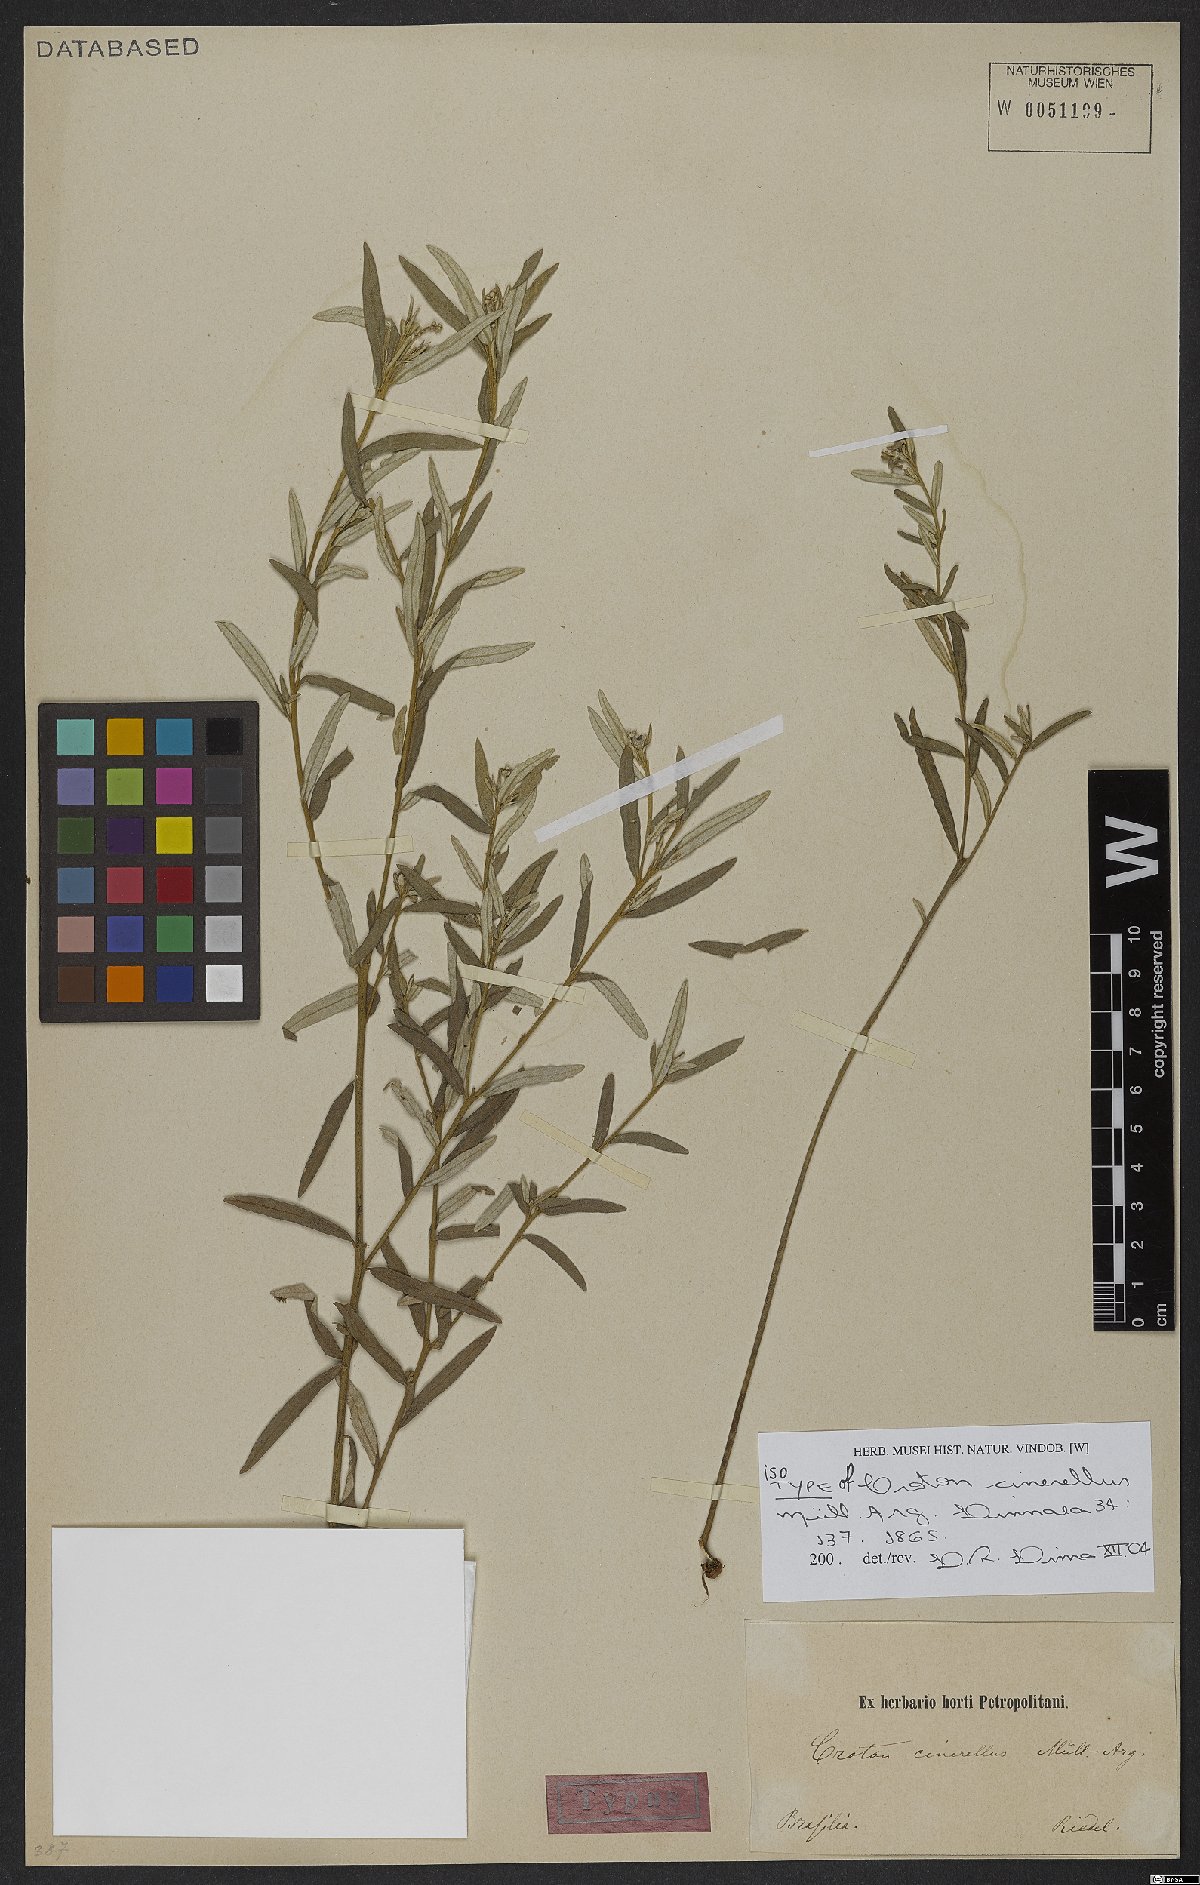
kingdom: Plantae
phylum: Tracheophyta
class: Magnoliopsida
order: Malpighiales
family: Euphorbiaceae
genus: Croton
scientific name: Croton cinerellus
